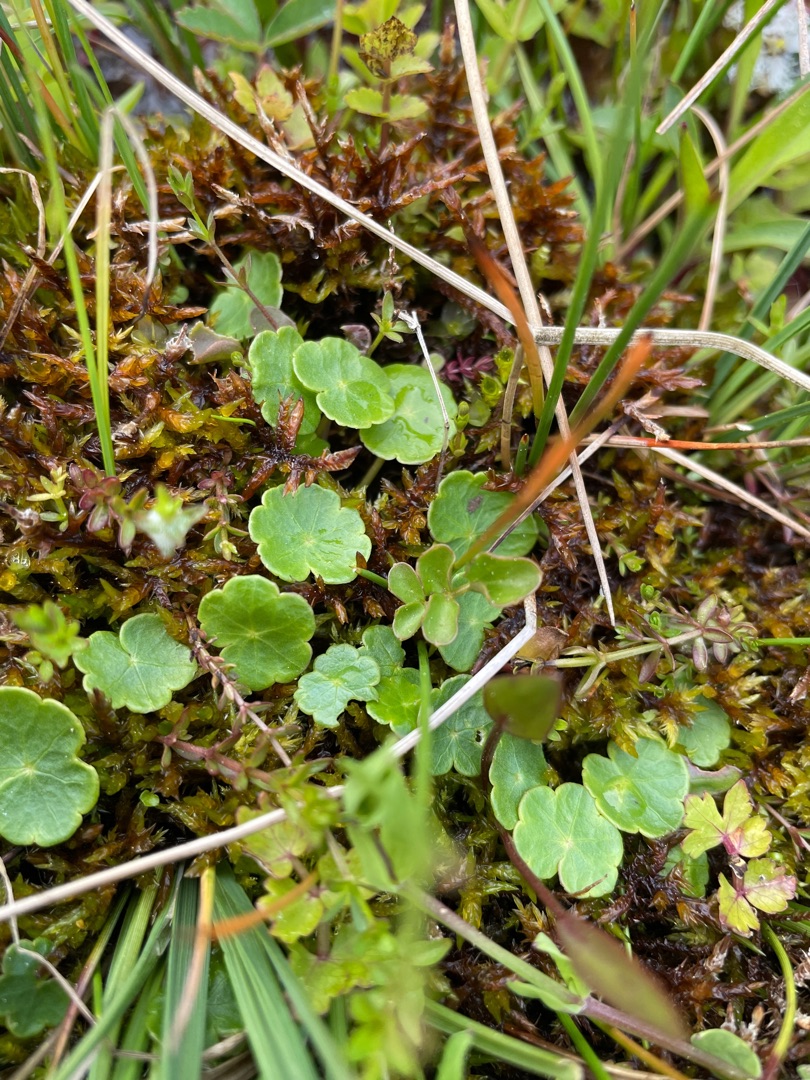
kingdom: Plantae
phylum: Tracheophyta
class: Magnoliopsida
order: Apiales
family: Araliaceae
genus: Hydrocotyle
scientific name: Hydrocotyle vulgaris
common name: Vandnavle
